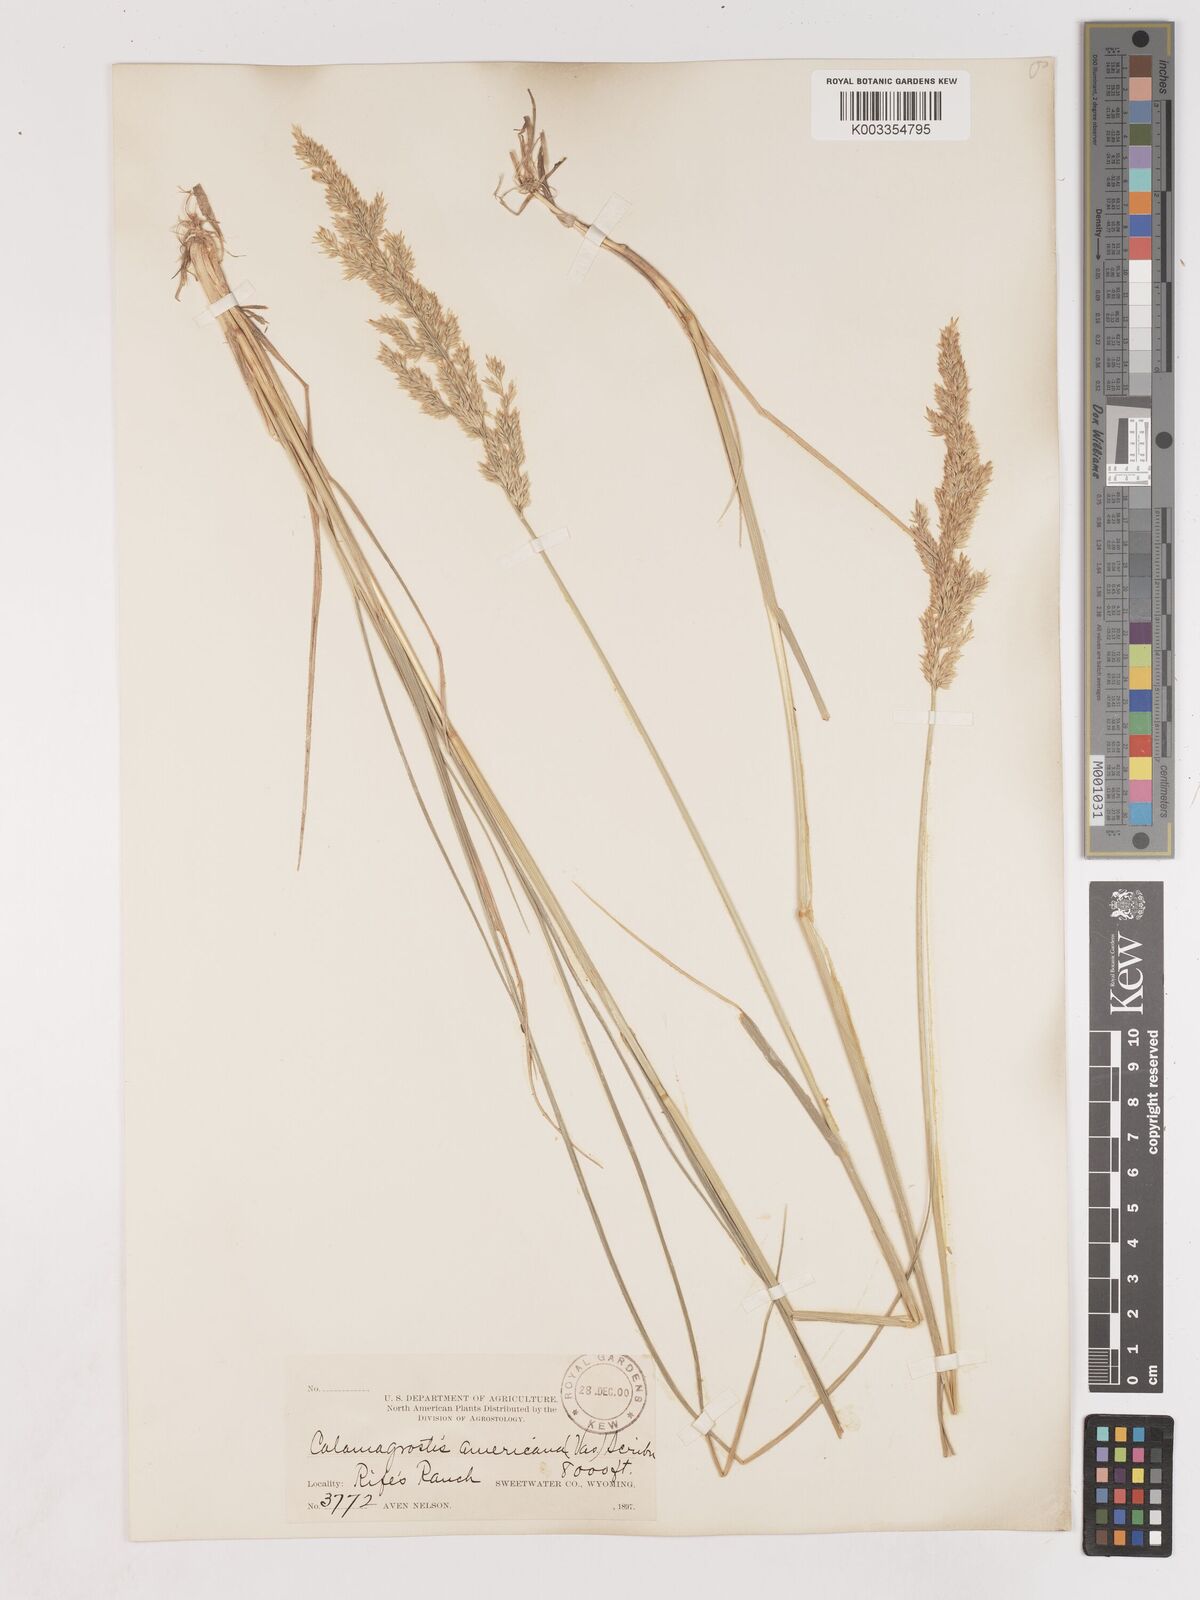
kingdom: Plantae
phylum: Tracheophyta
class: Liliopsida
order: Poales
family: Poaceae
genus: Cinnagrostis
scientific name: Cinnagrostis recta
